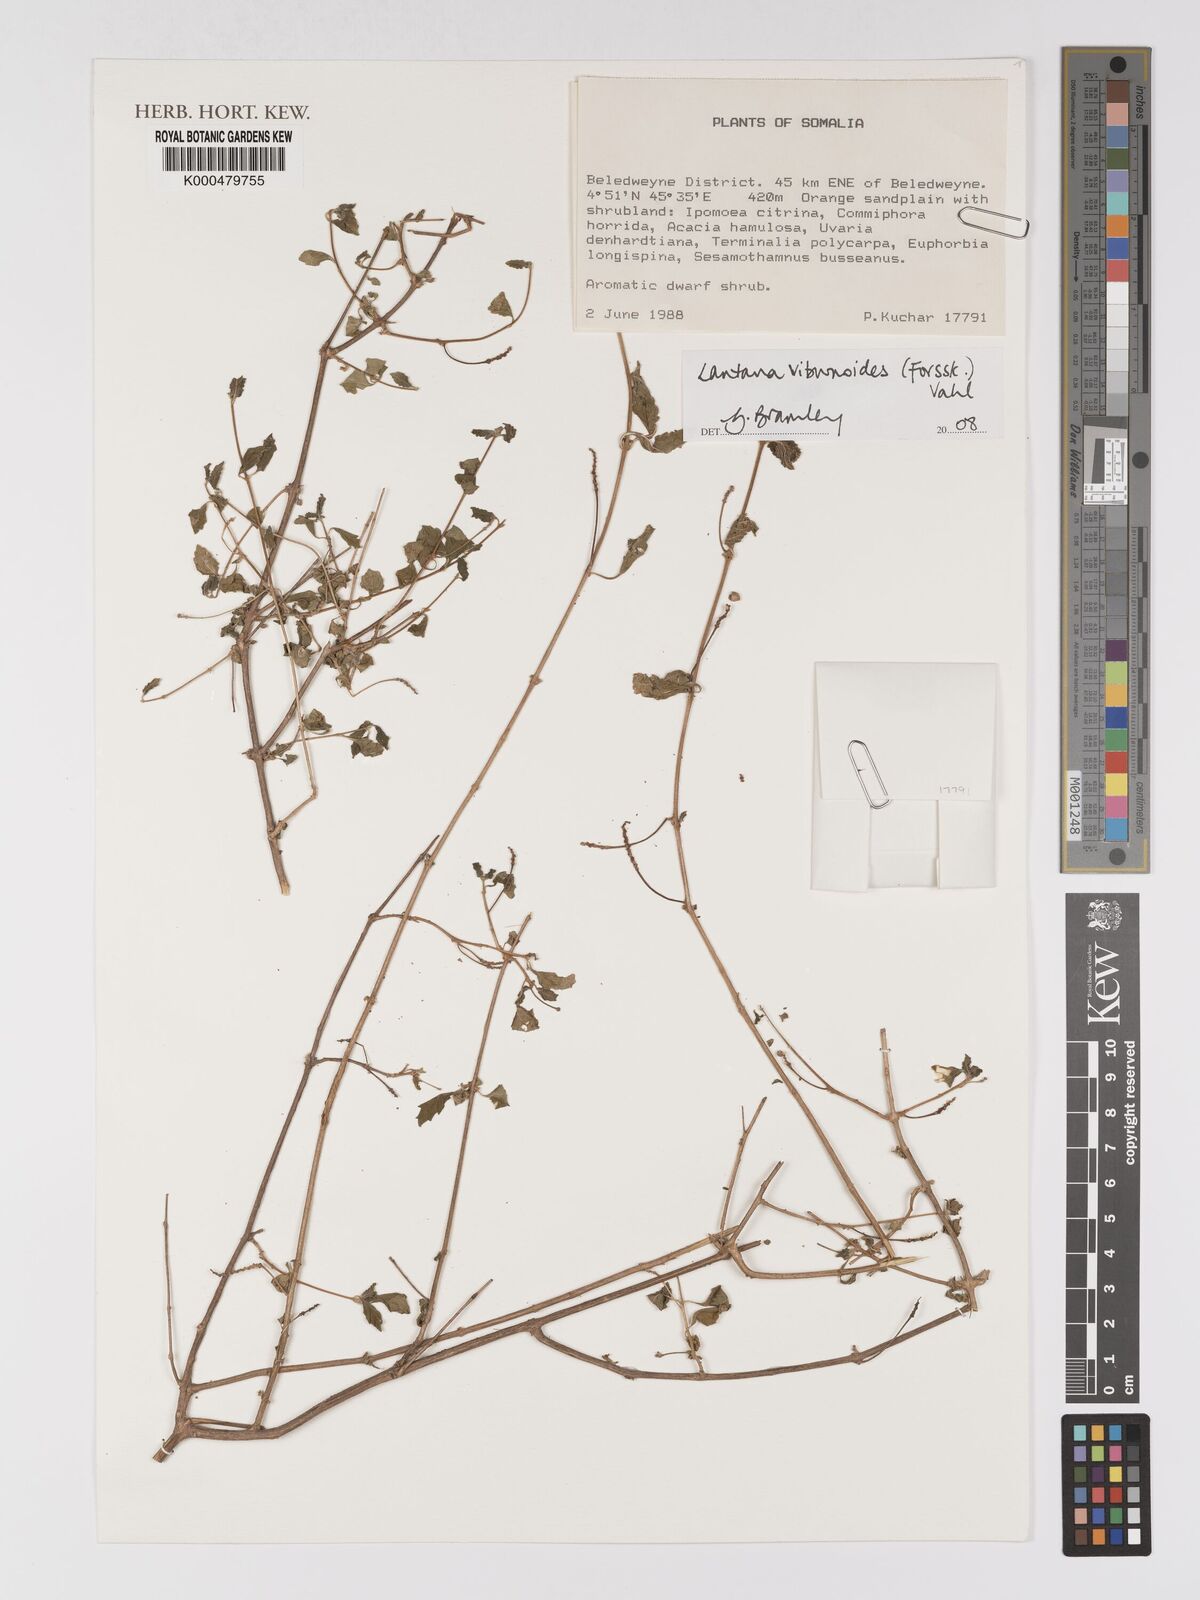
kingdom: Plantae
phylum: Tracheophyta
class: Magnoliopsida
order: Lamiales
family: Verbenaceae
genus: Lantana
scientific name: Lantana viburnoides
